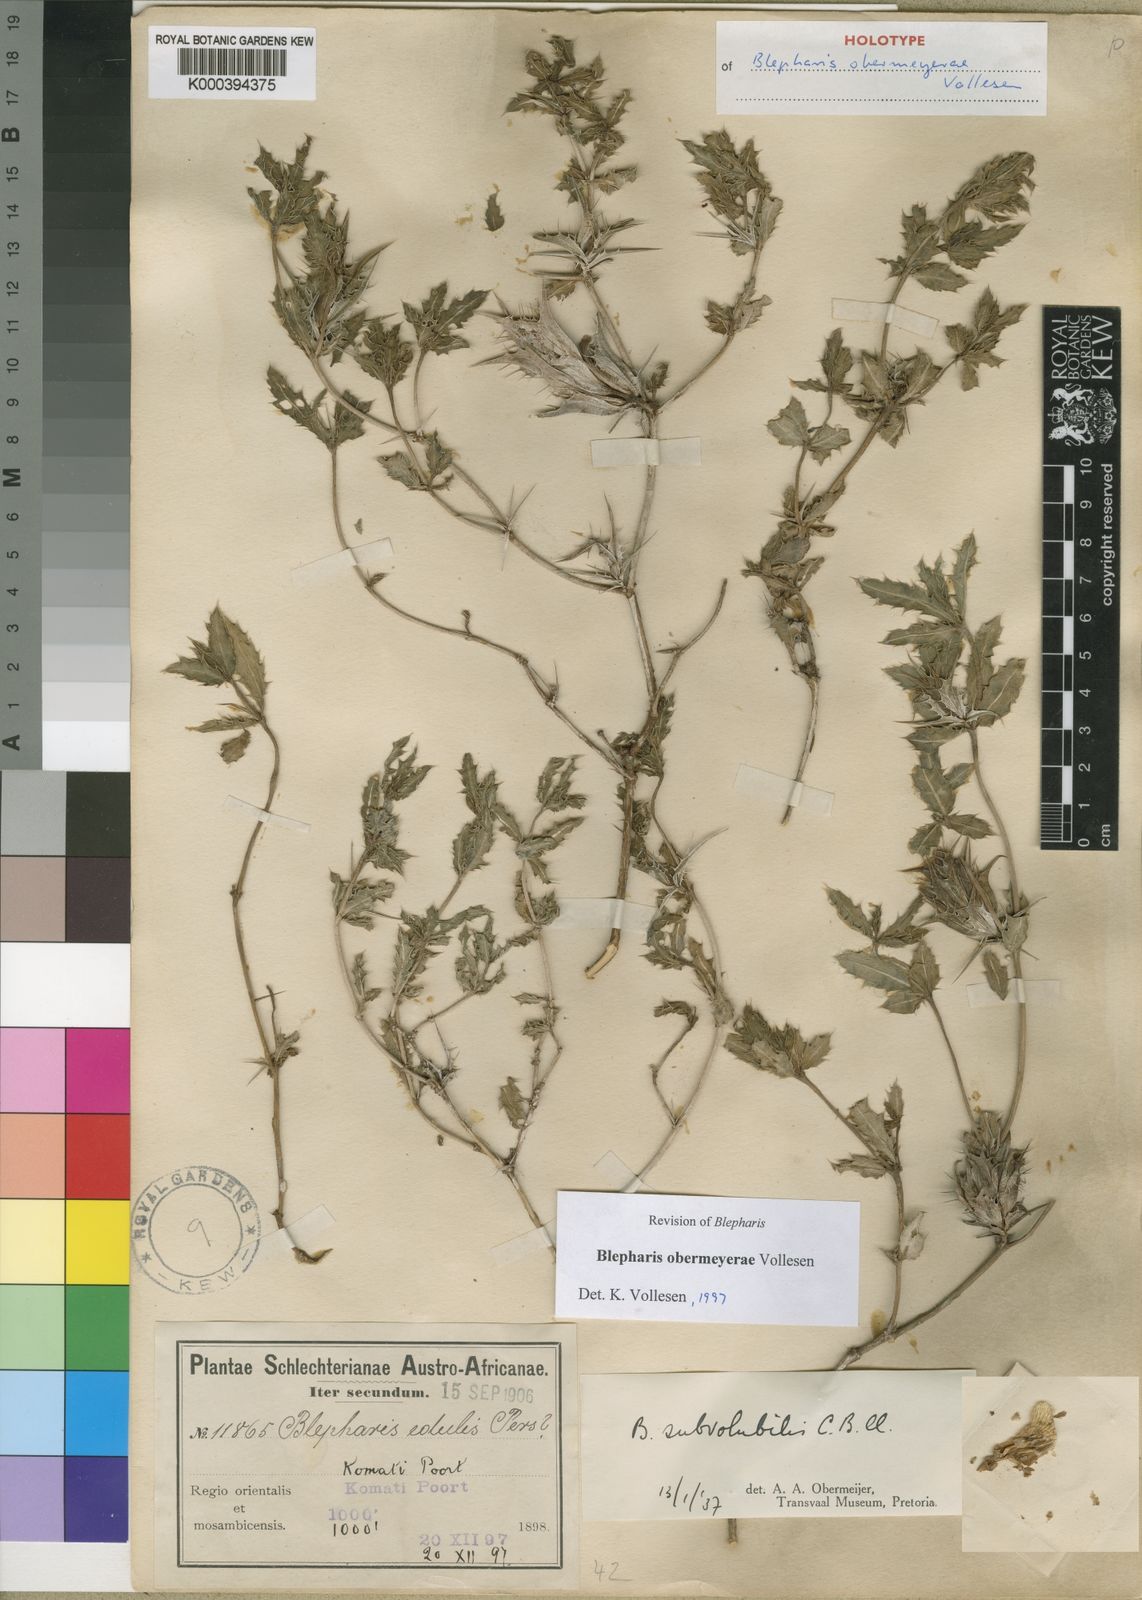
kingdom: Plantae
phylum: Tracheophyta
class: Magnoliopsida
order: Lamiales
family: Acanthaceae
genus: Blepharis
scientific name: Blepharis obermeyerae
